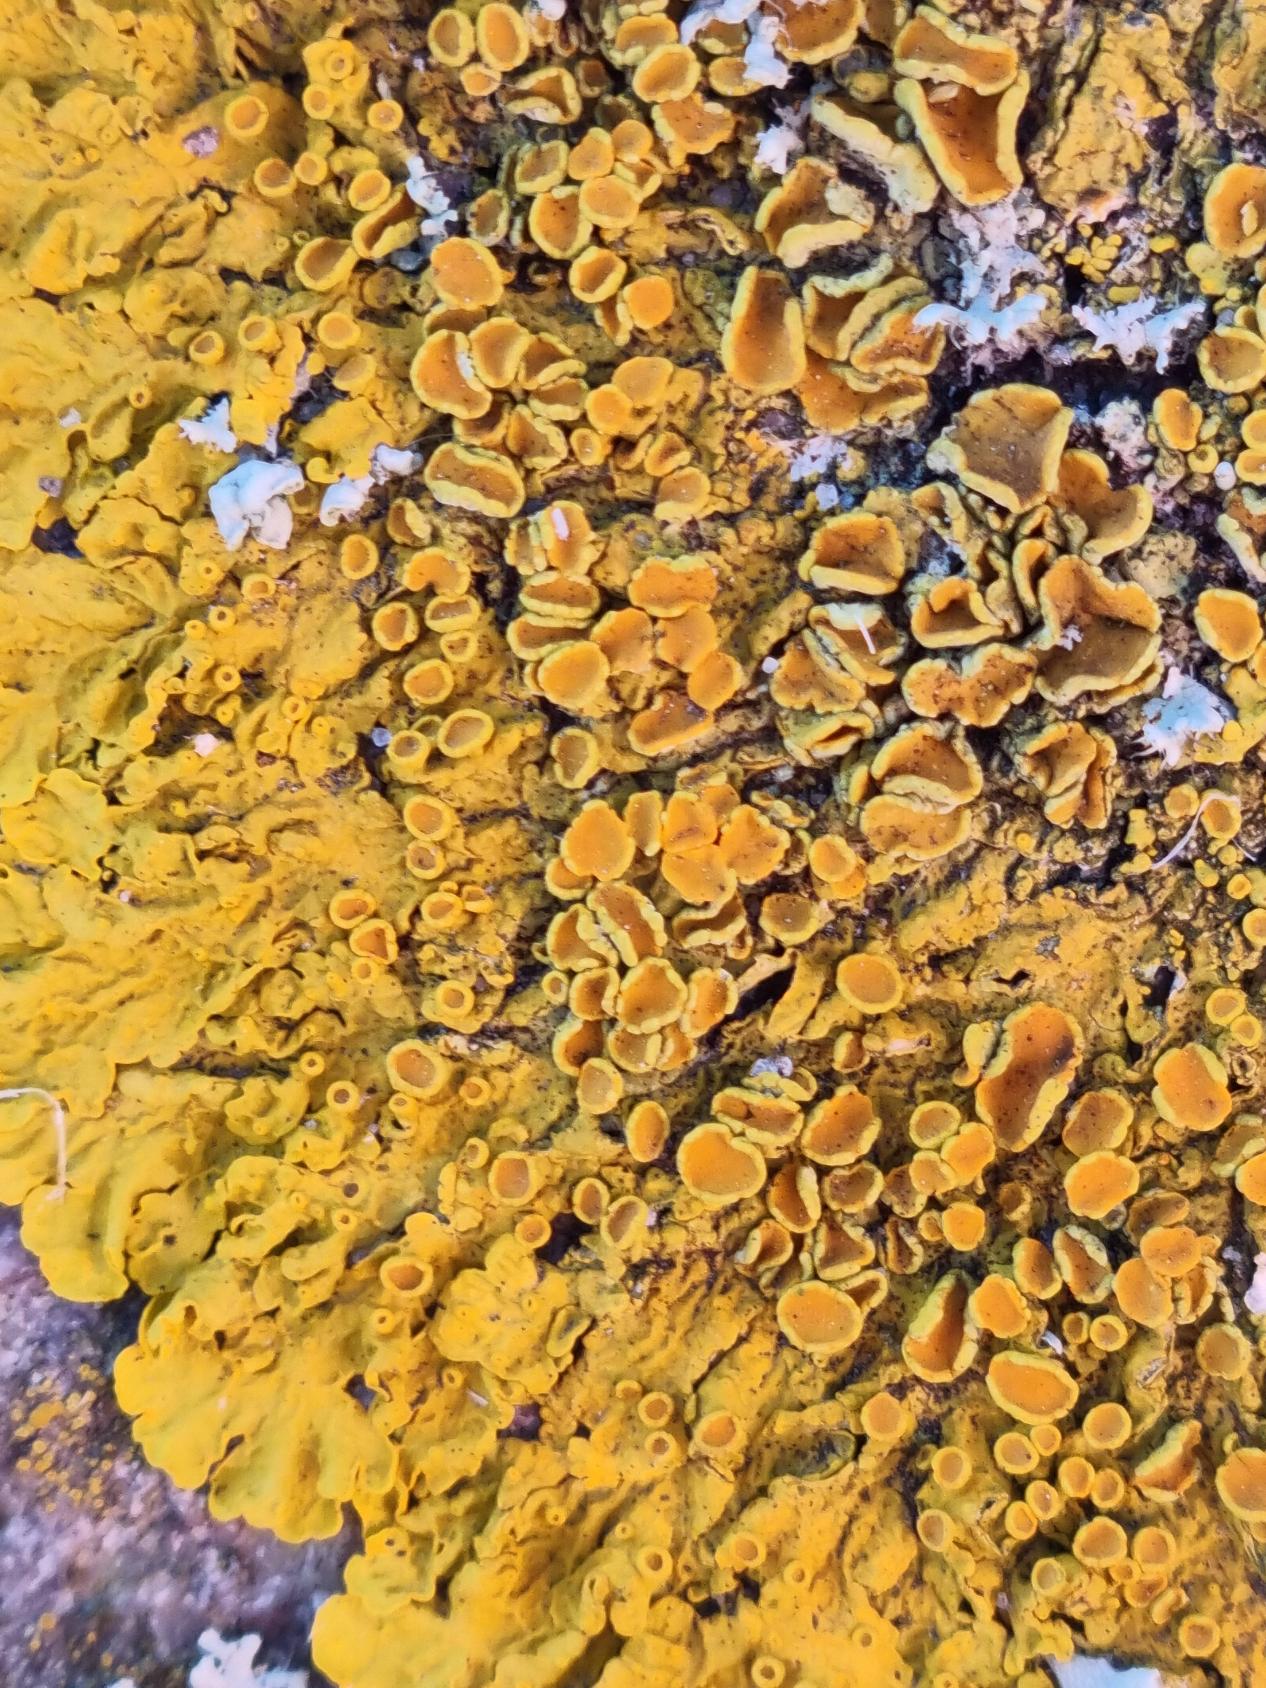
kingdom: Fungi
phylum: Ascomycota
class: Lecanoromycetes
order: Teloschistales
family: Teloschistaceae
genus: Xanthoria
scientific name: Xanthoria parietina
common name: Almindelig væggelav
